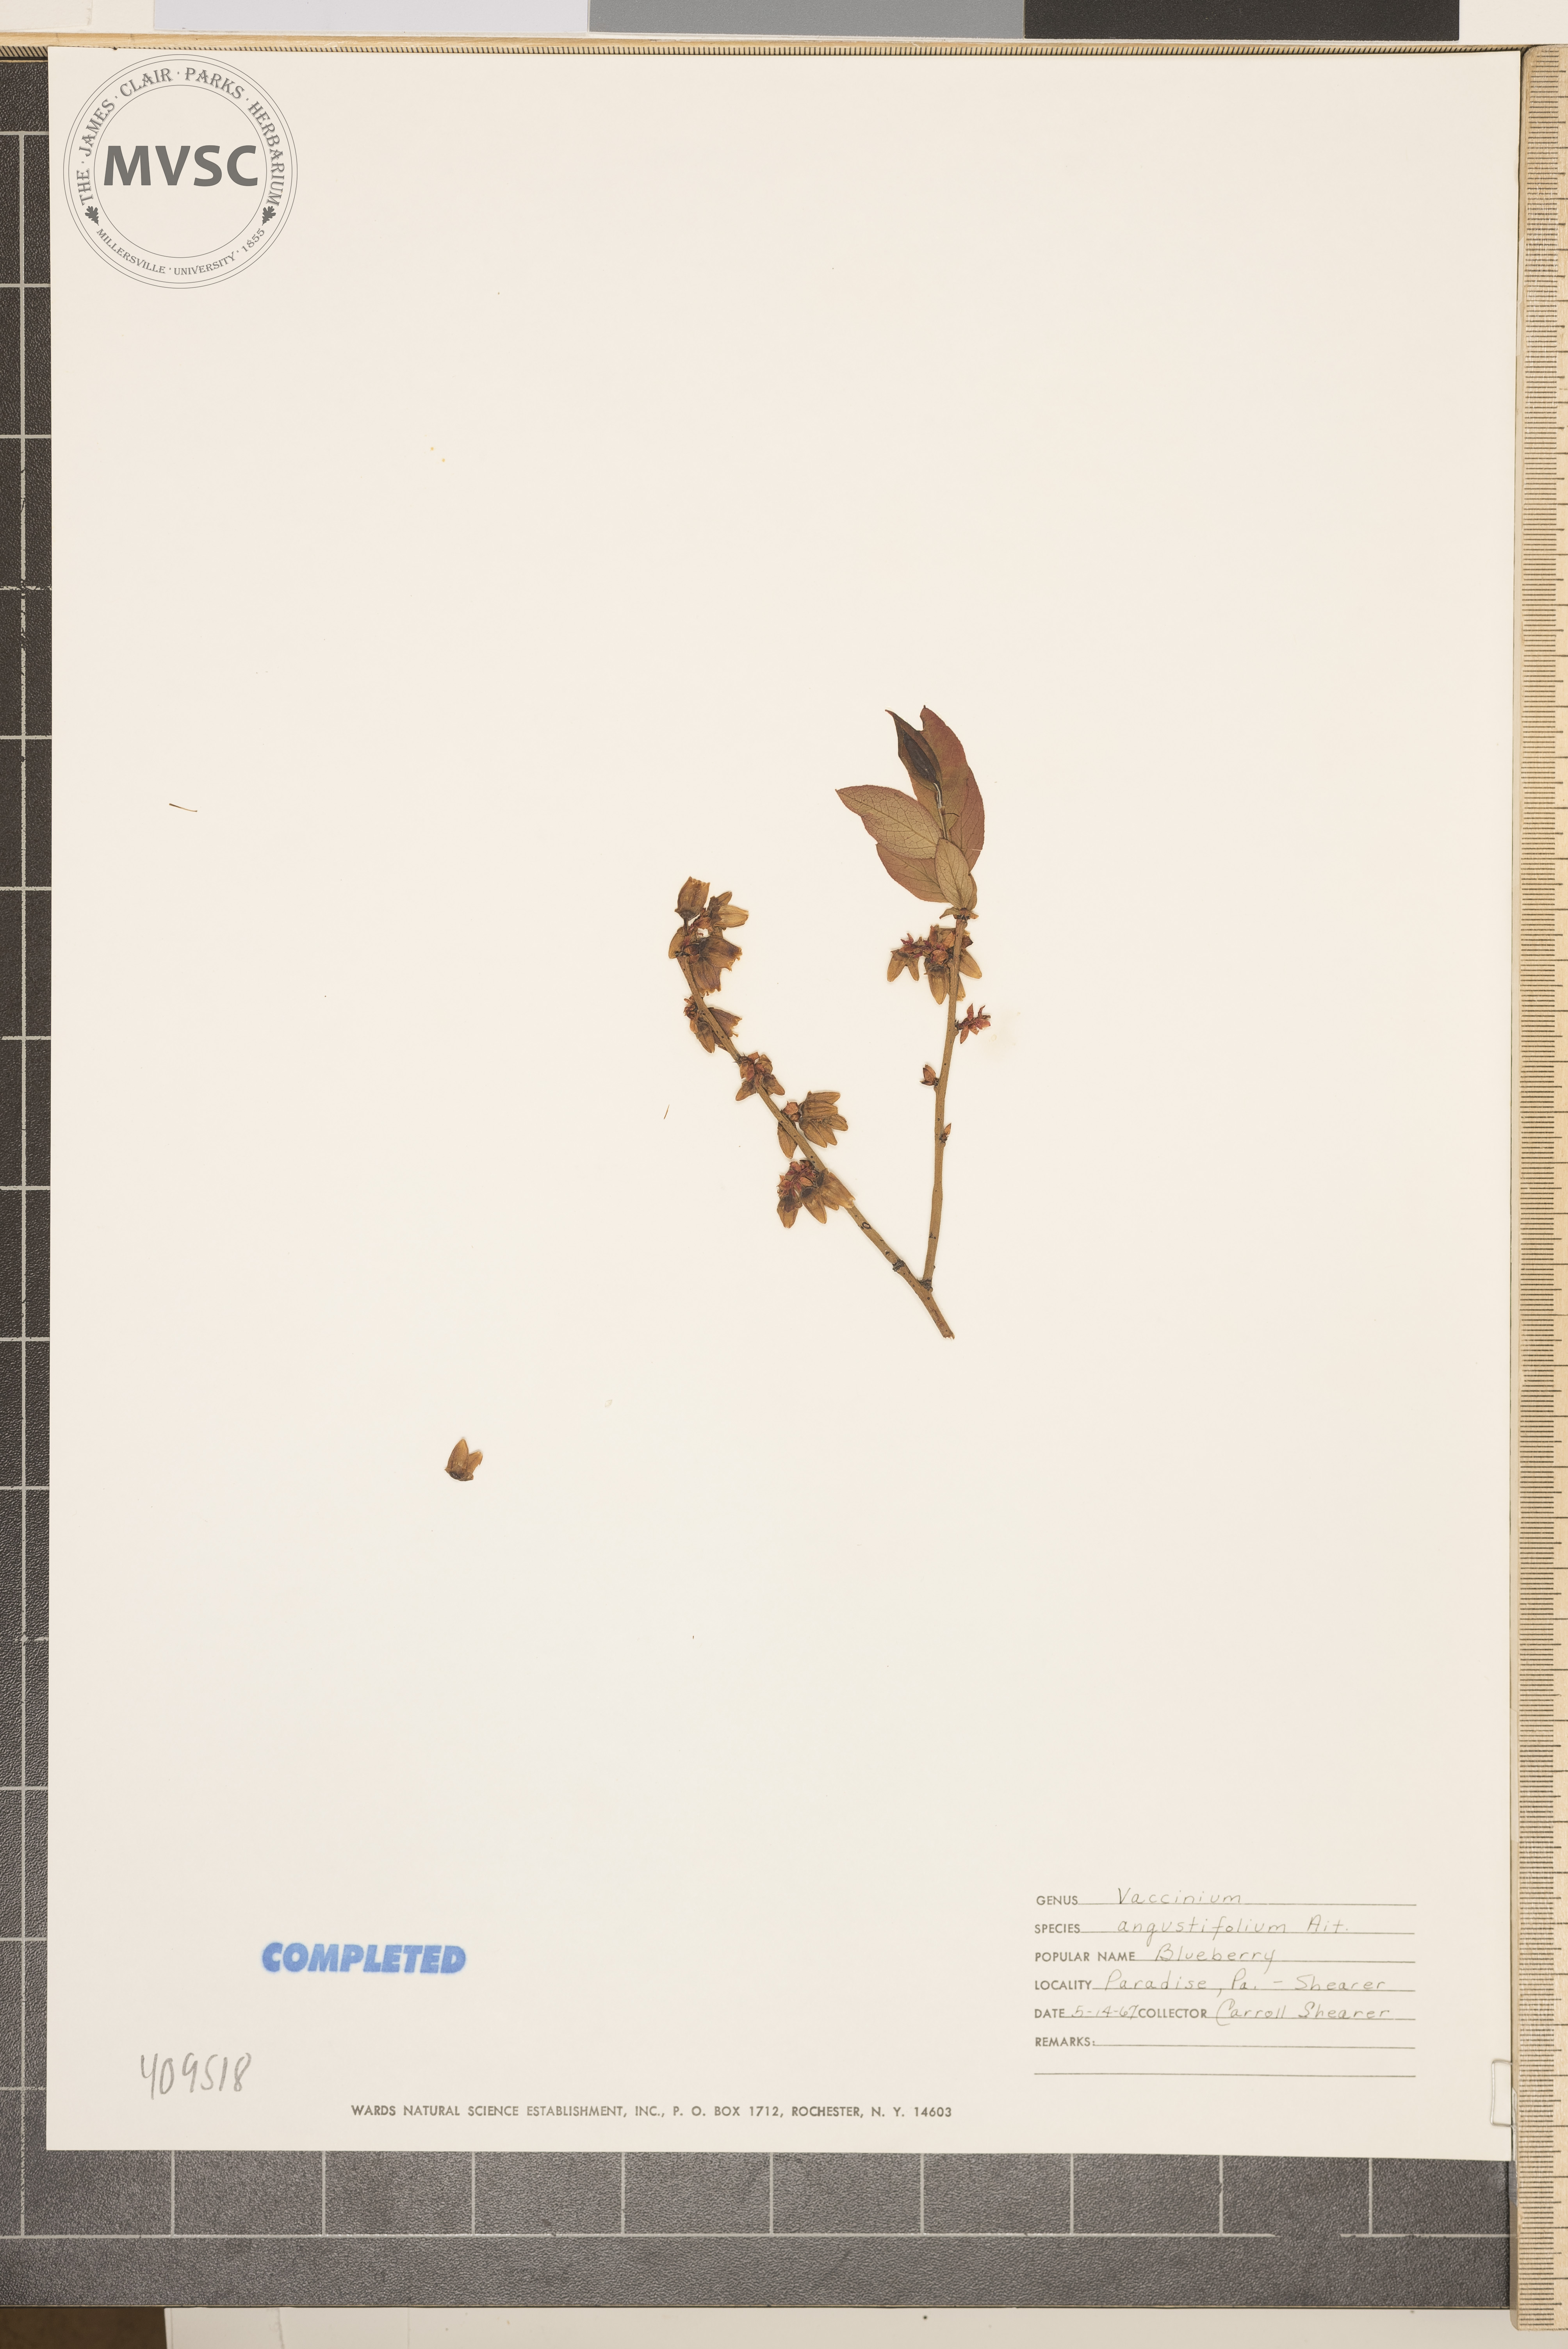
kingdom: Plantae
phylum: Tracheophyta
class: Magnoliopsida
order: Ericales
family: Ericaceae
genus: Vaccinium
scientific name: Vaccinium angustifolium
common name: Early lowbush blueberry
